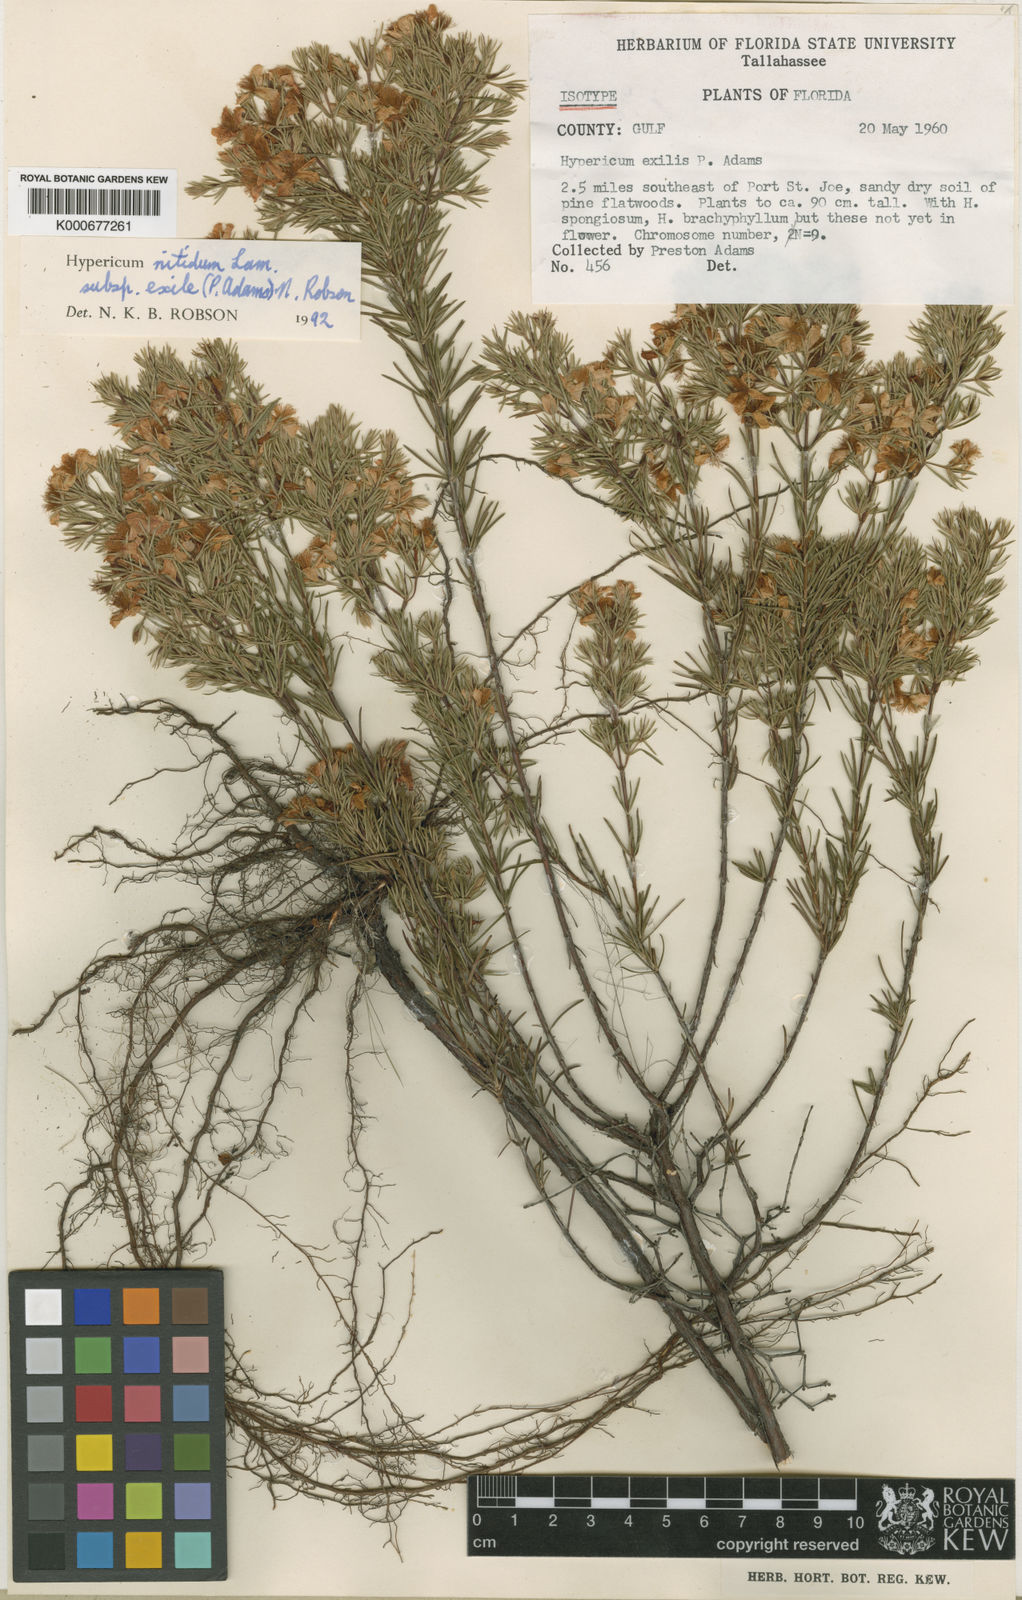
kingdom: Plantae
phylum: Tracheophyta
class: Magnoliopsida
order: Malpighiales
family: Hypericaceae
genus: Hypericum
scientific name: Hypericum nitidum
